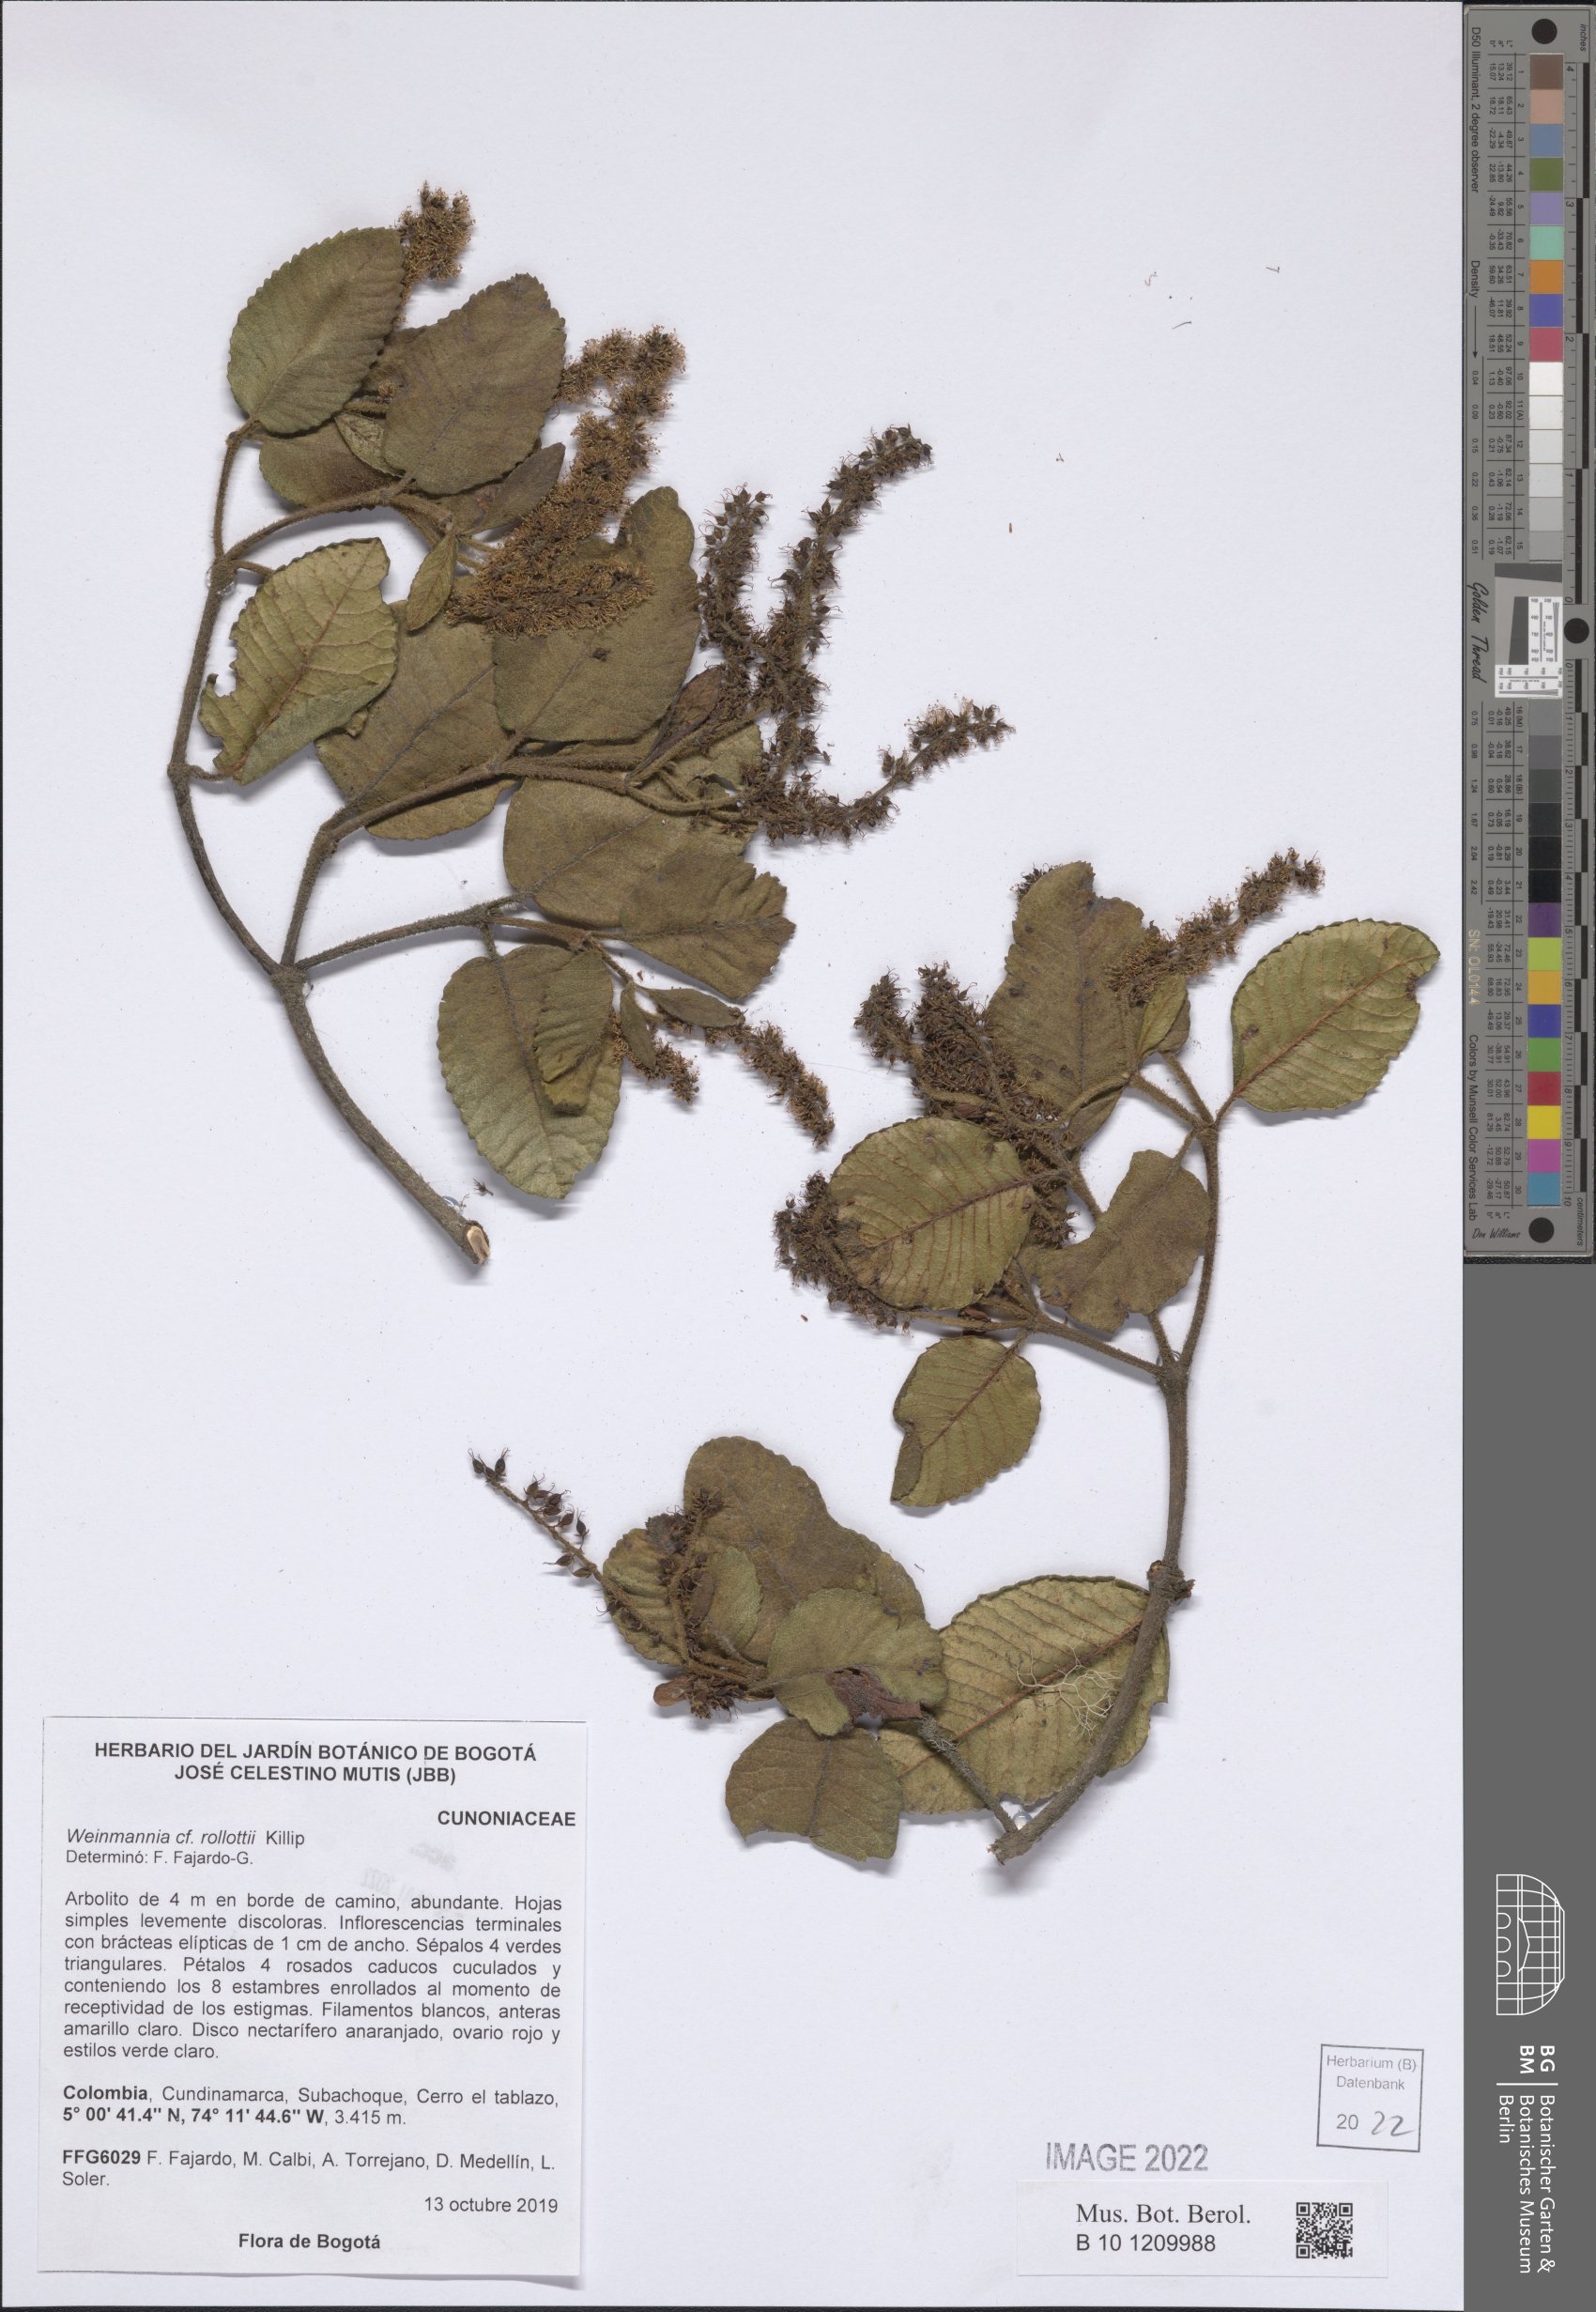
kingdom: Plantae
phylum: Tracheophyta
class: Magnoliopsida
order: Oxalidales
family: Cunoniaceae
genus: Weinmannia
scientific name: Weinmannia rollottii
